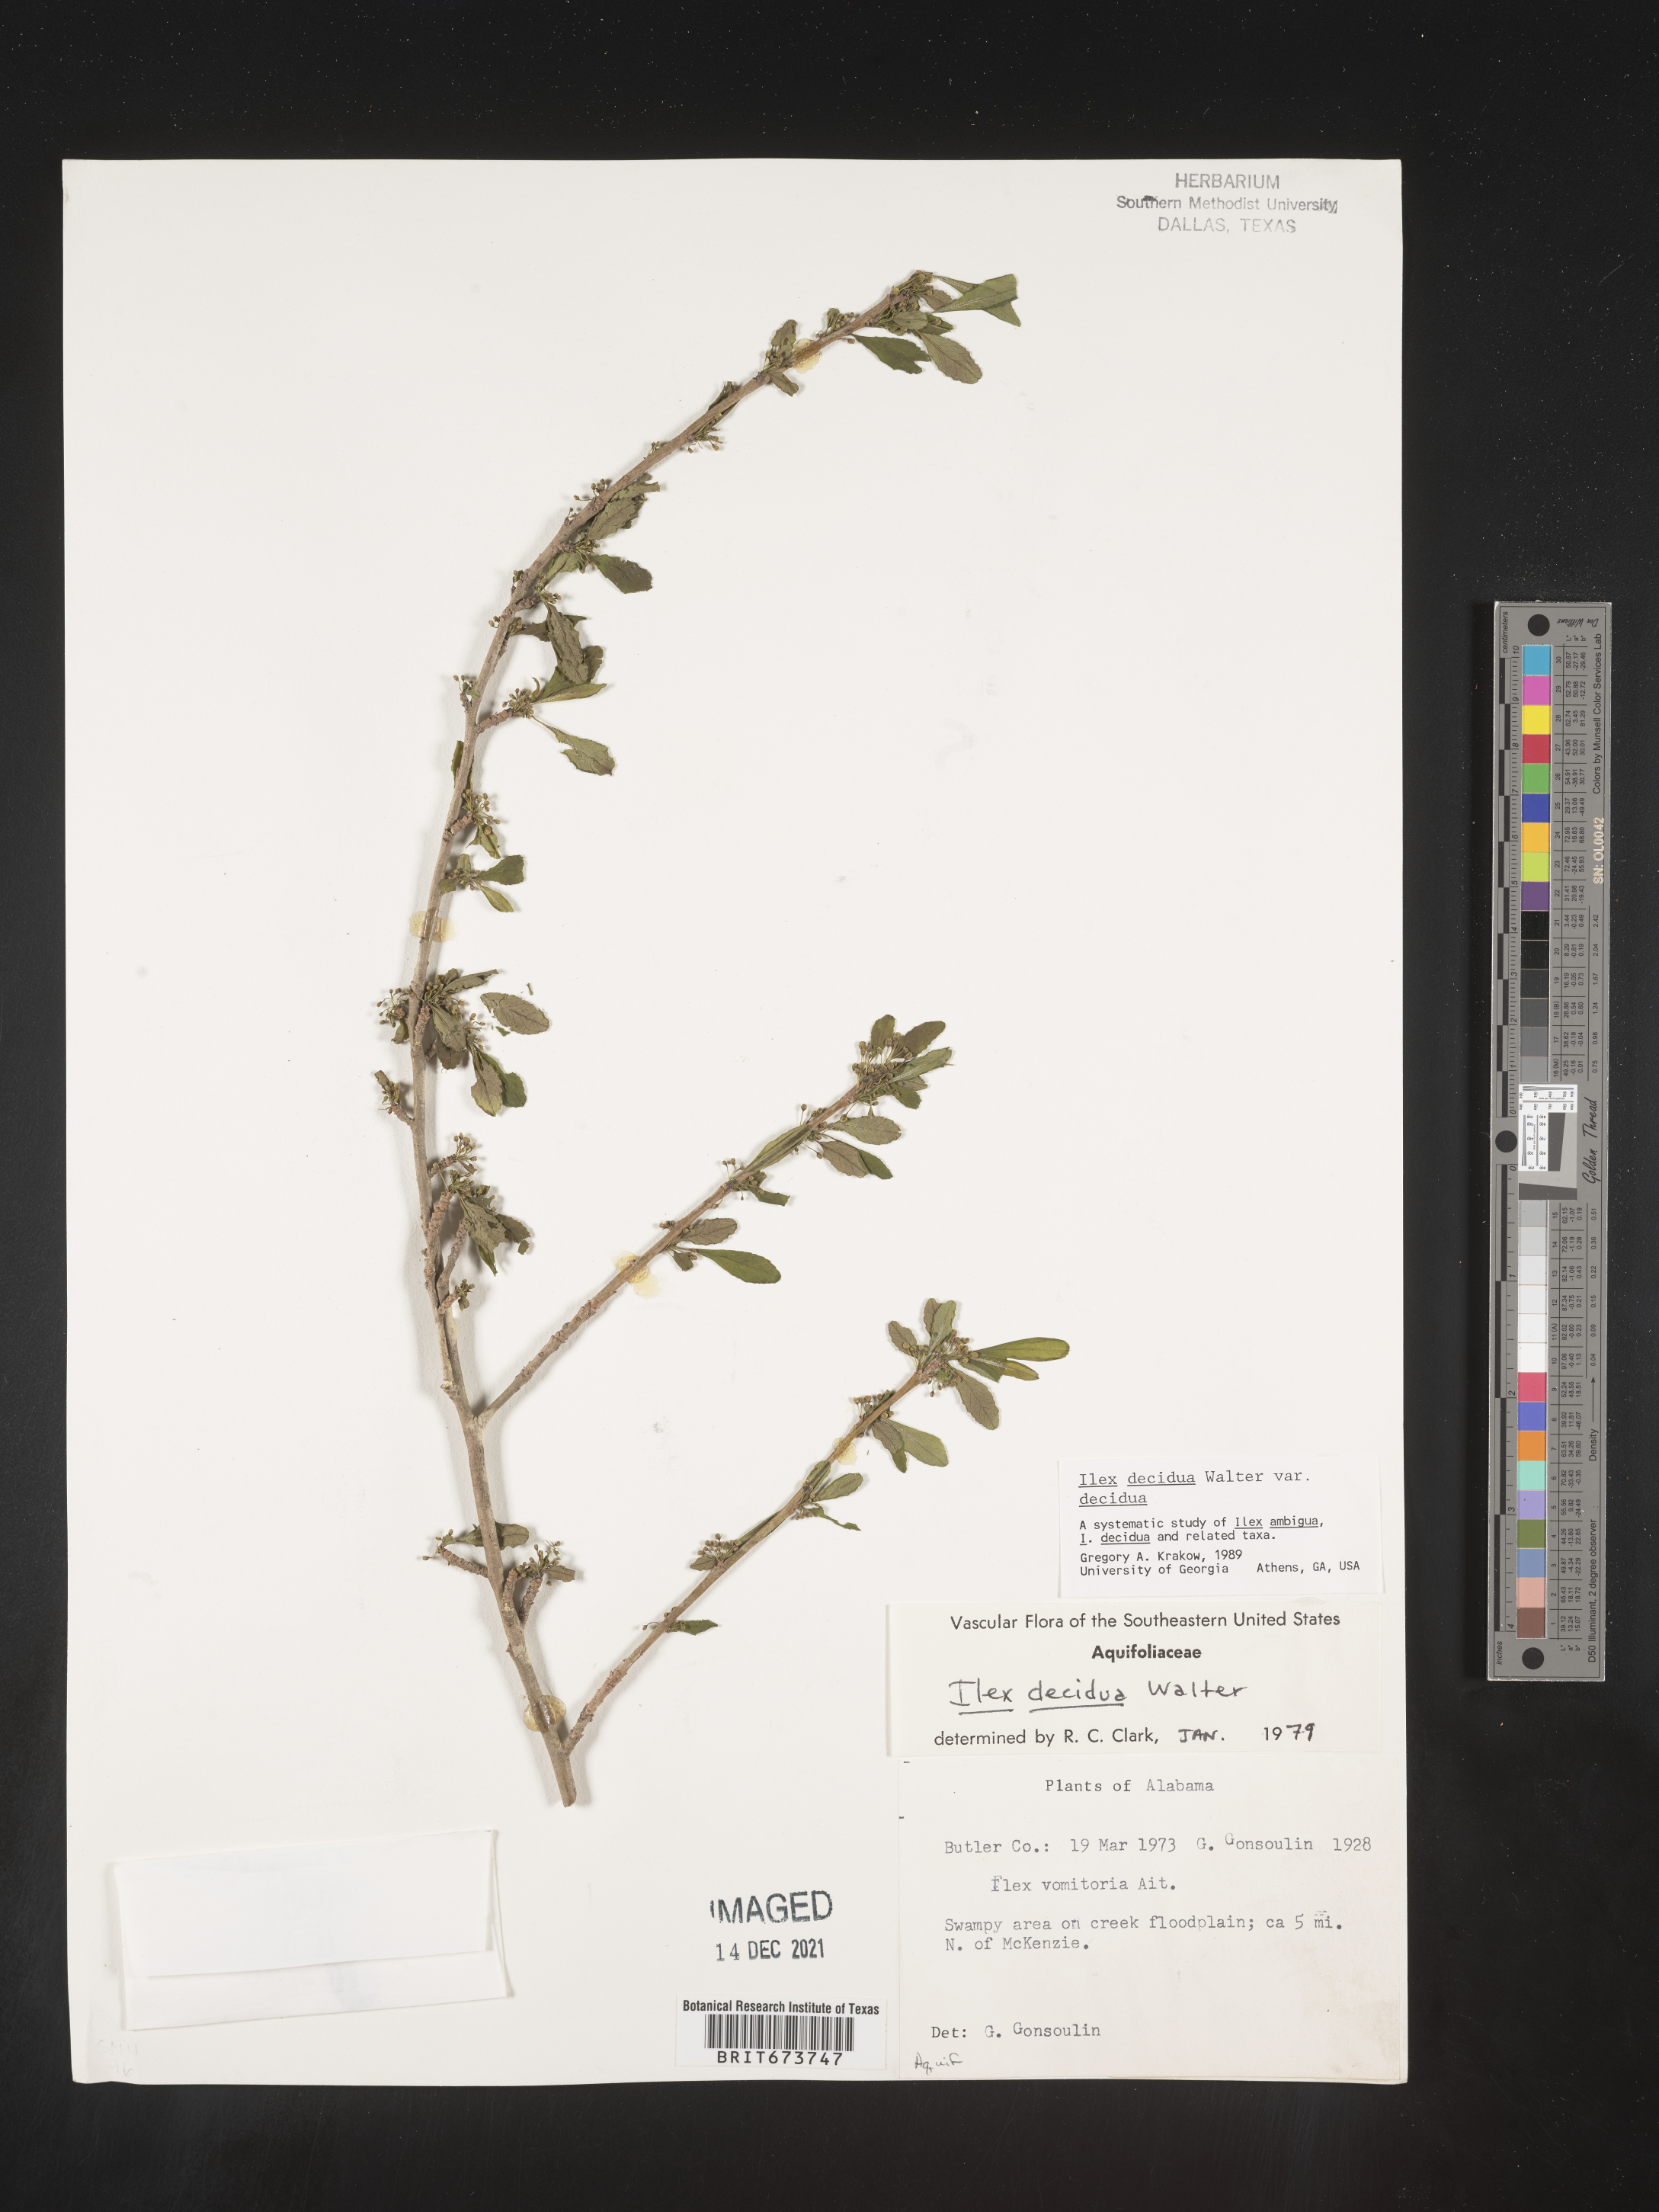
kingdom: Plantae
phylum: Tracheophyta
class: Magnoliopsida
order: Aquifoliales
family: Aquifoliaceae
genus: Ilex
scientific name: Ilex decidua
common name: Possum-haw
